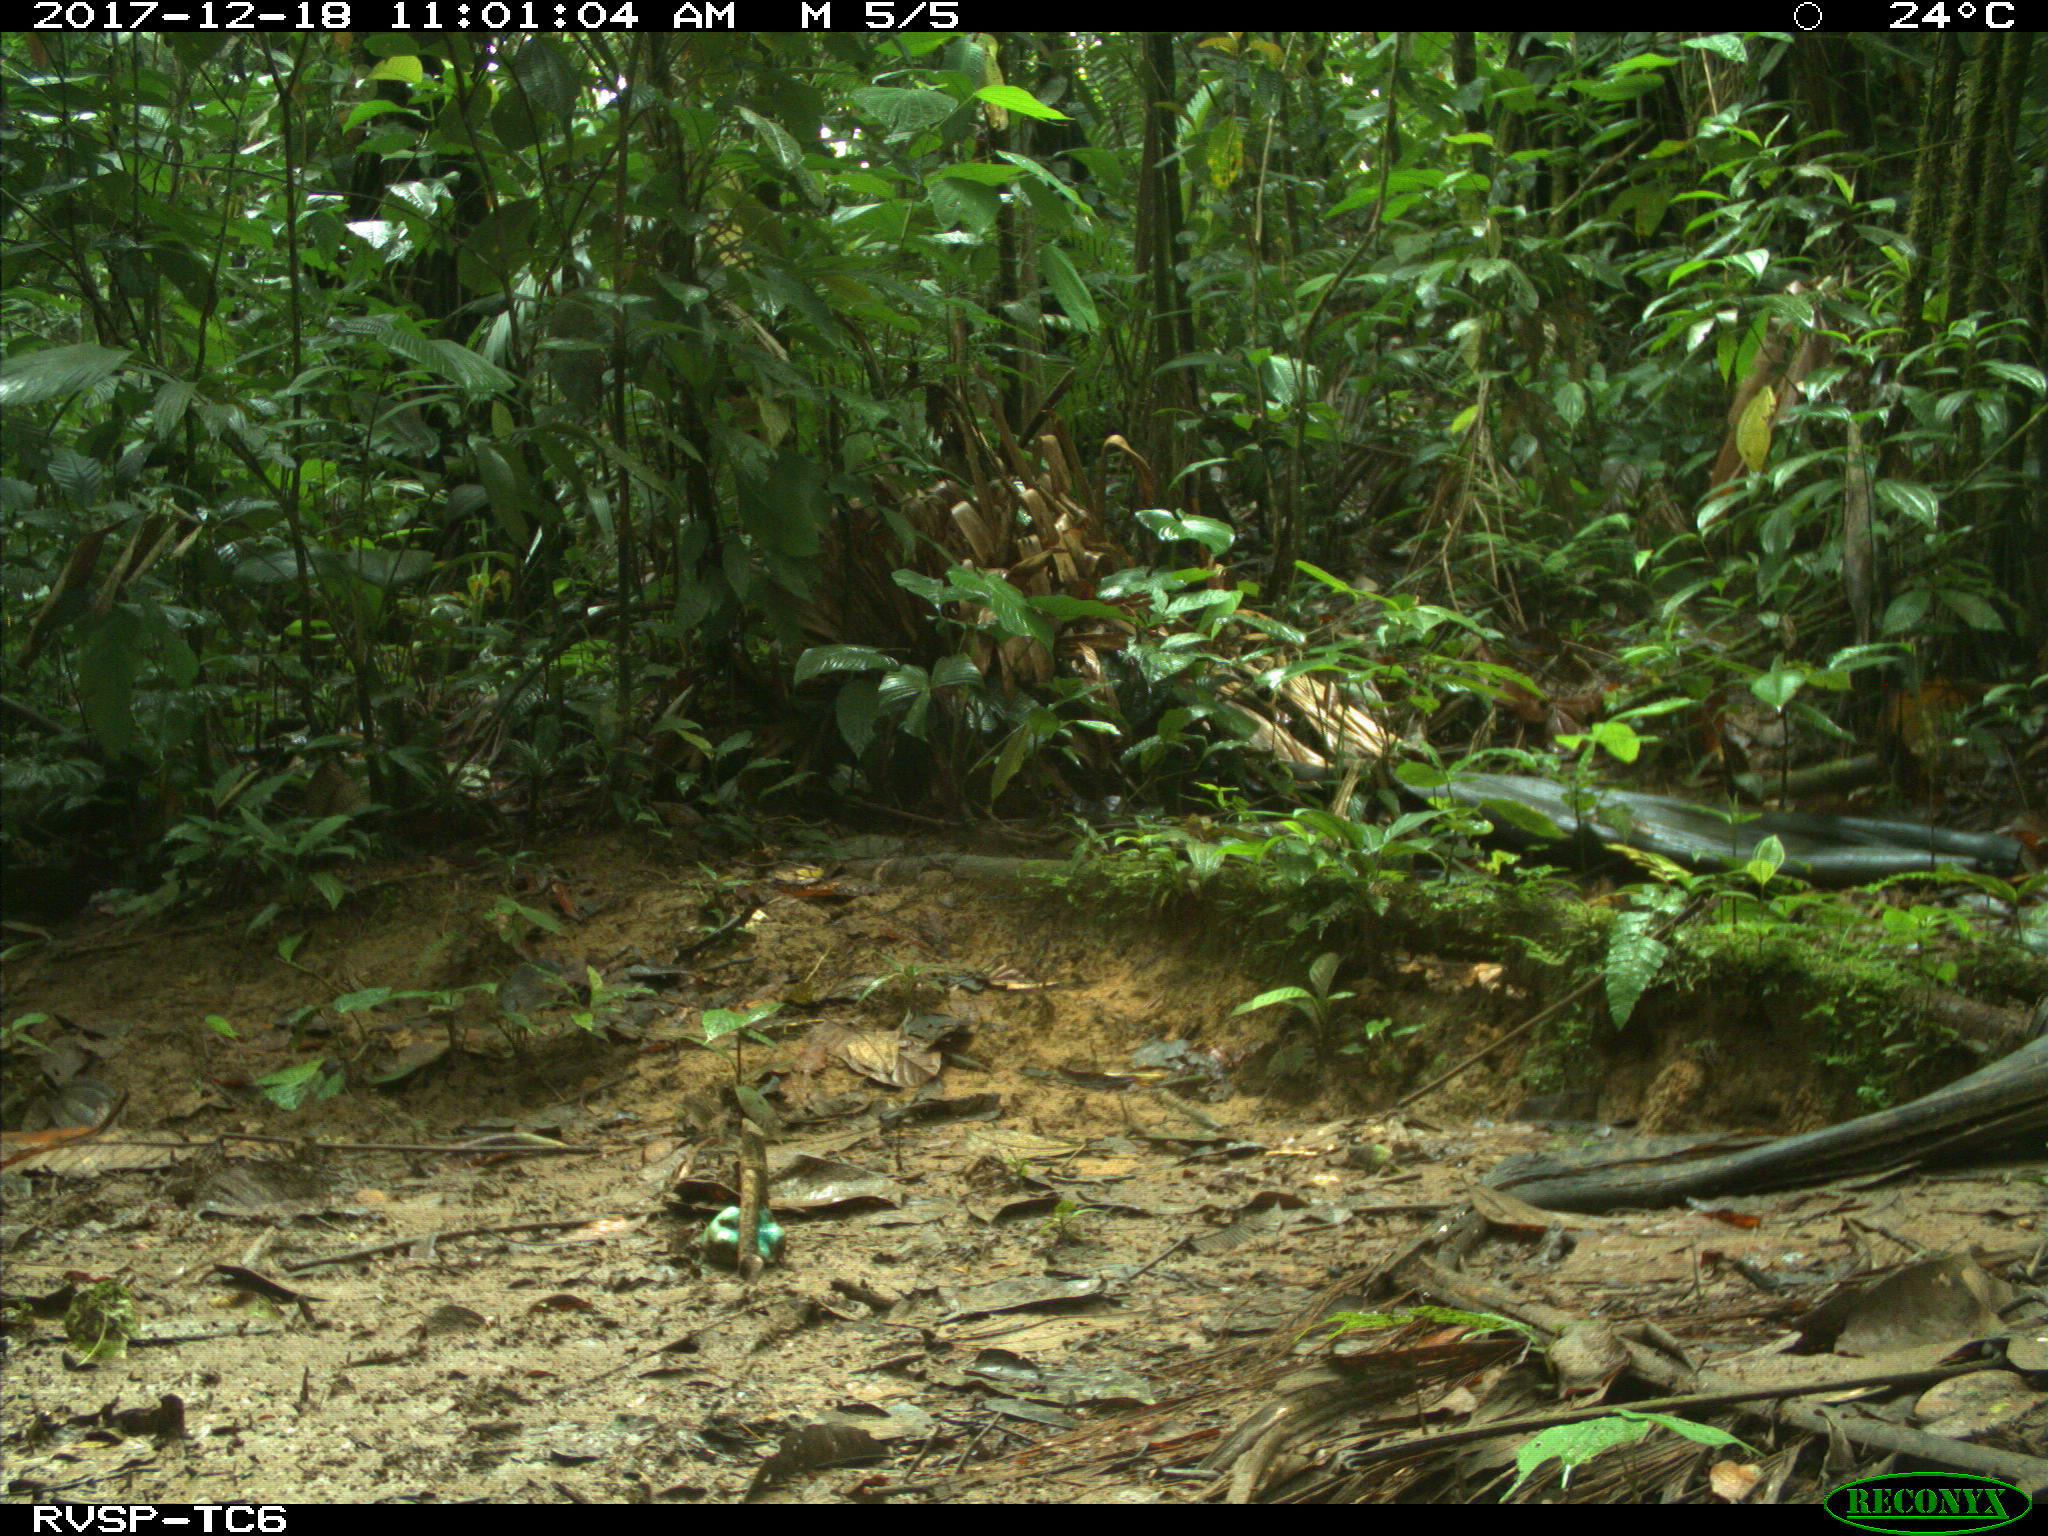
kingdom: Animalia
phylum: Chordata
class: Mammalia
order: Rodentia
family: Dasyproctidae
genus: Dasyprocta
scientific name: Dasyprocta punctata
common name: Central american agouti
